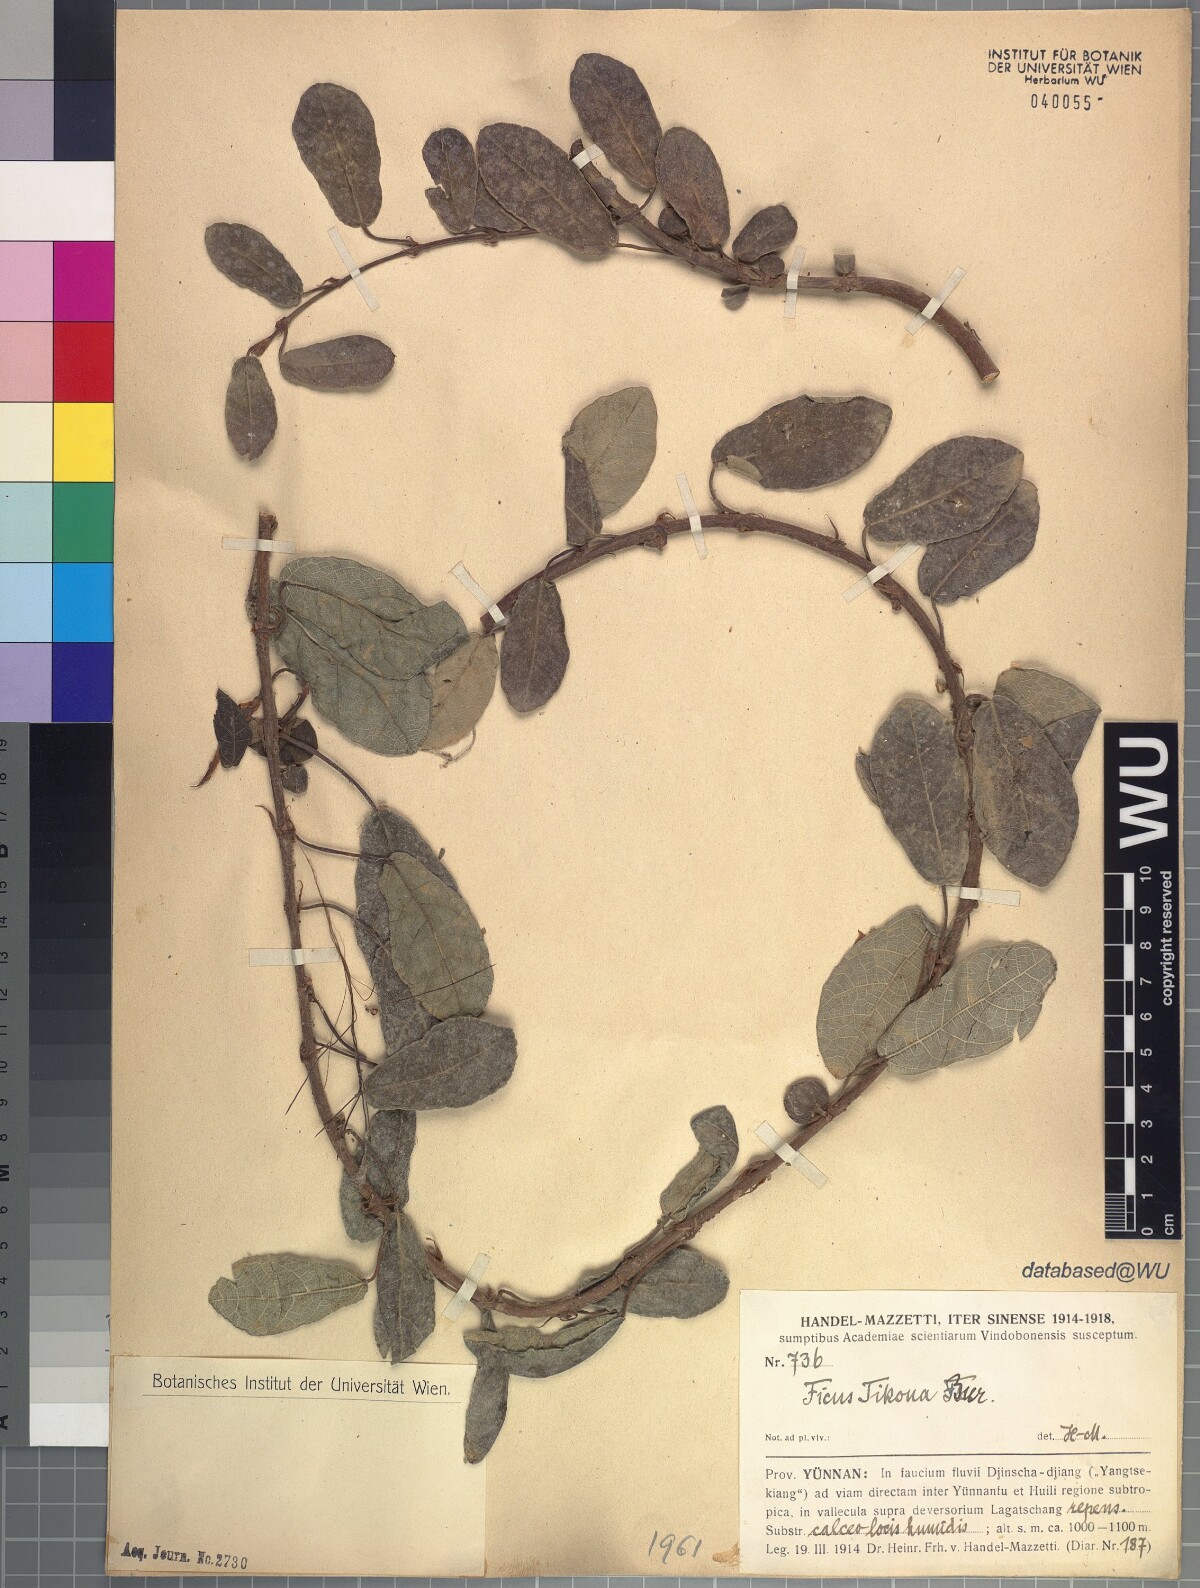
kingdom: Plantae
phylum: Tracheophyta
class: Magnoliopsida
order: Rosales
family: Moraceae
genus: Ficus
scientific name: Ficus tikoua
